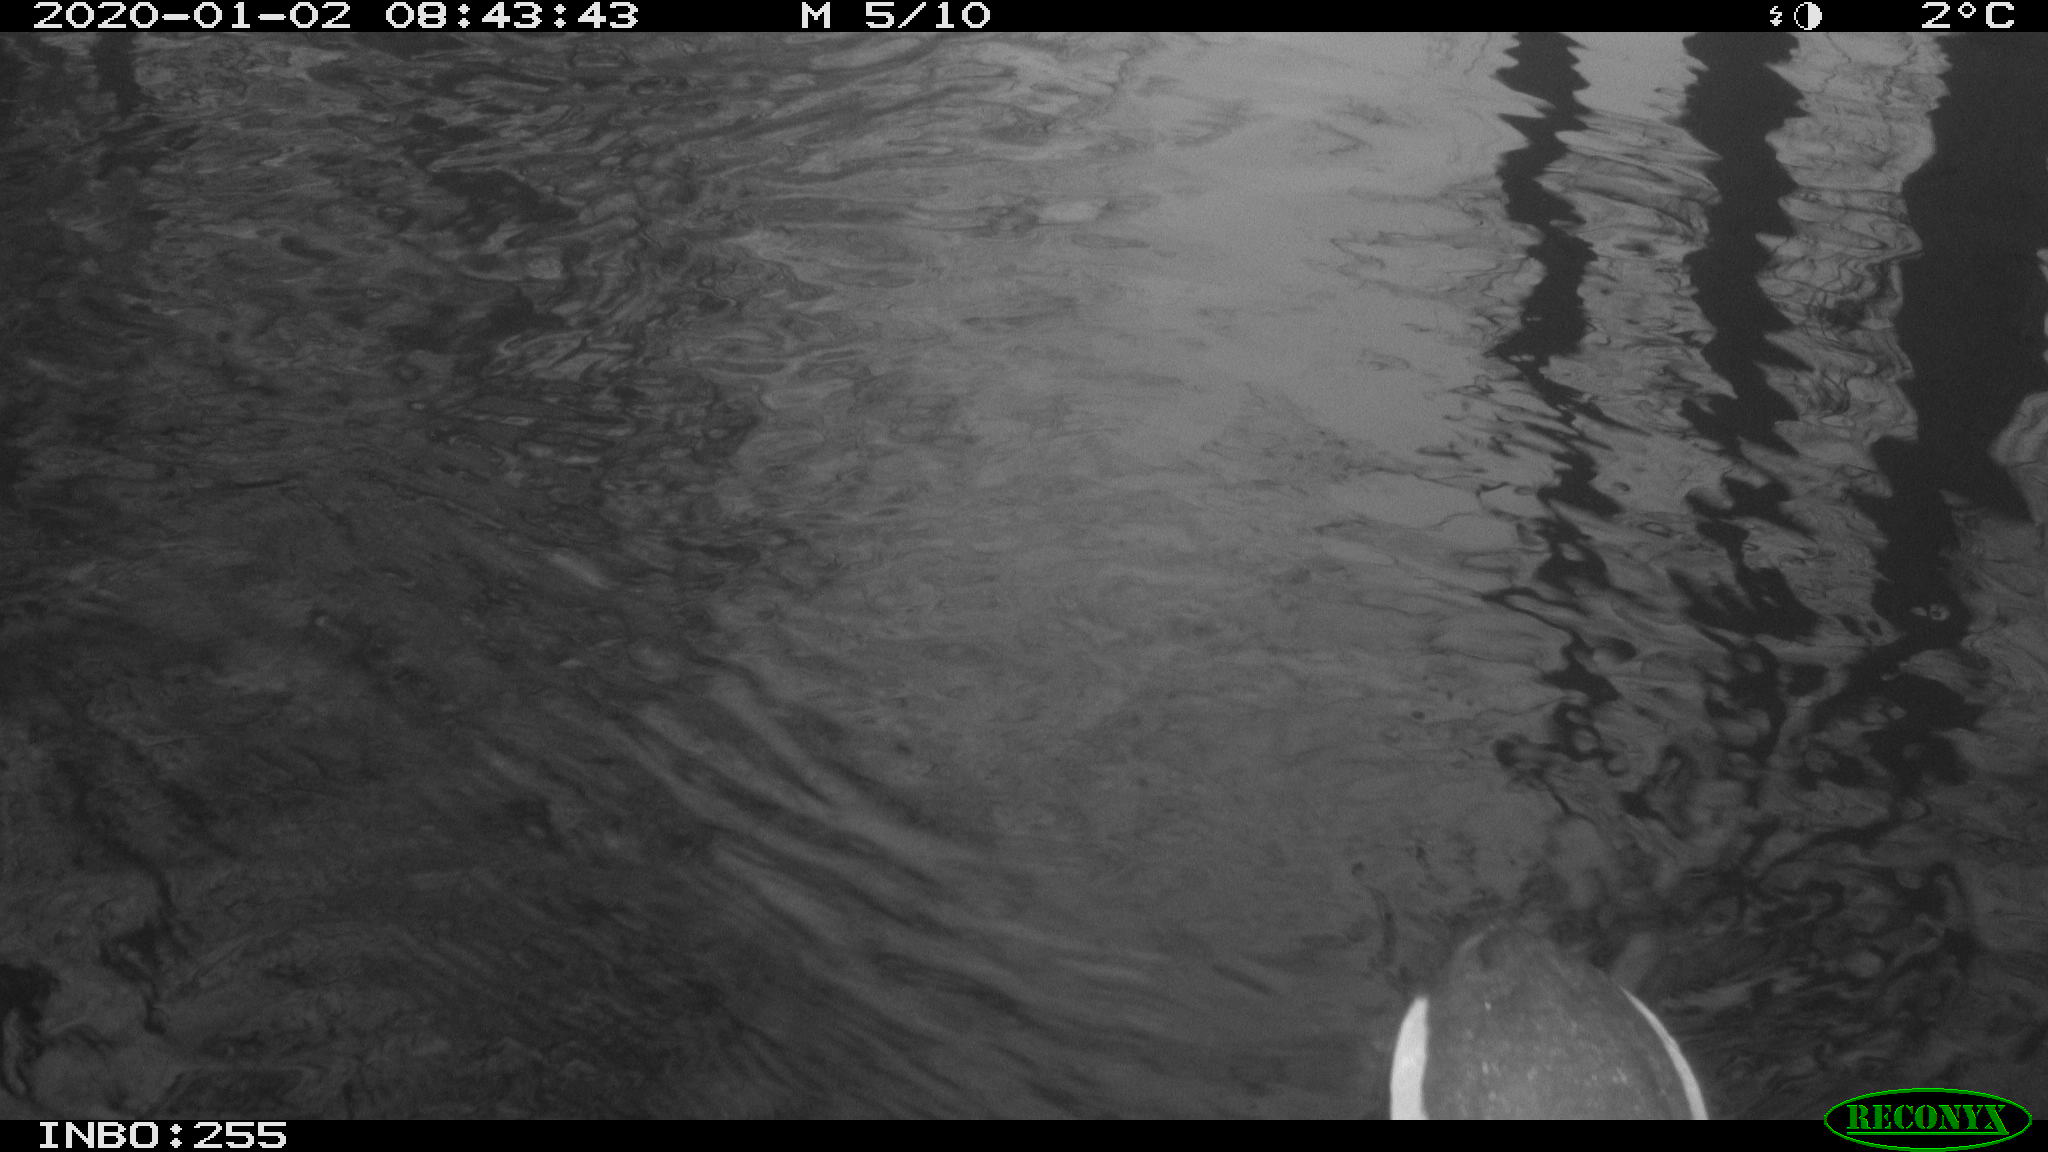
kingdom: Animalia
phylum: Chordata
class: Aves
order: Gruiformes
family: Rallidae
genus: Gallinula
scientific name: Gallinula chloropus
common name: Common moorhen
